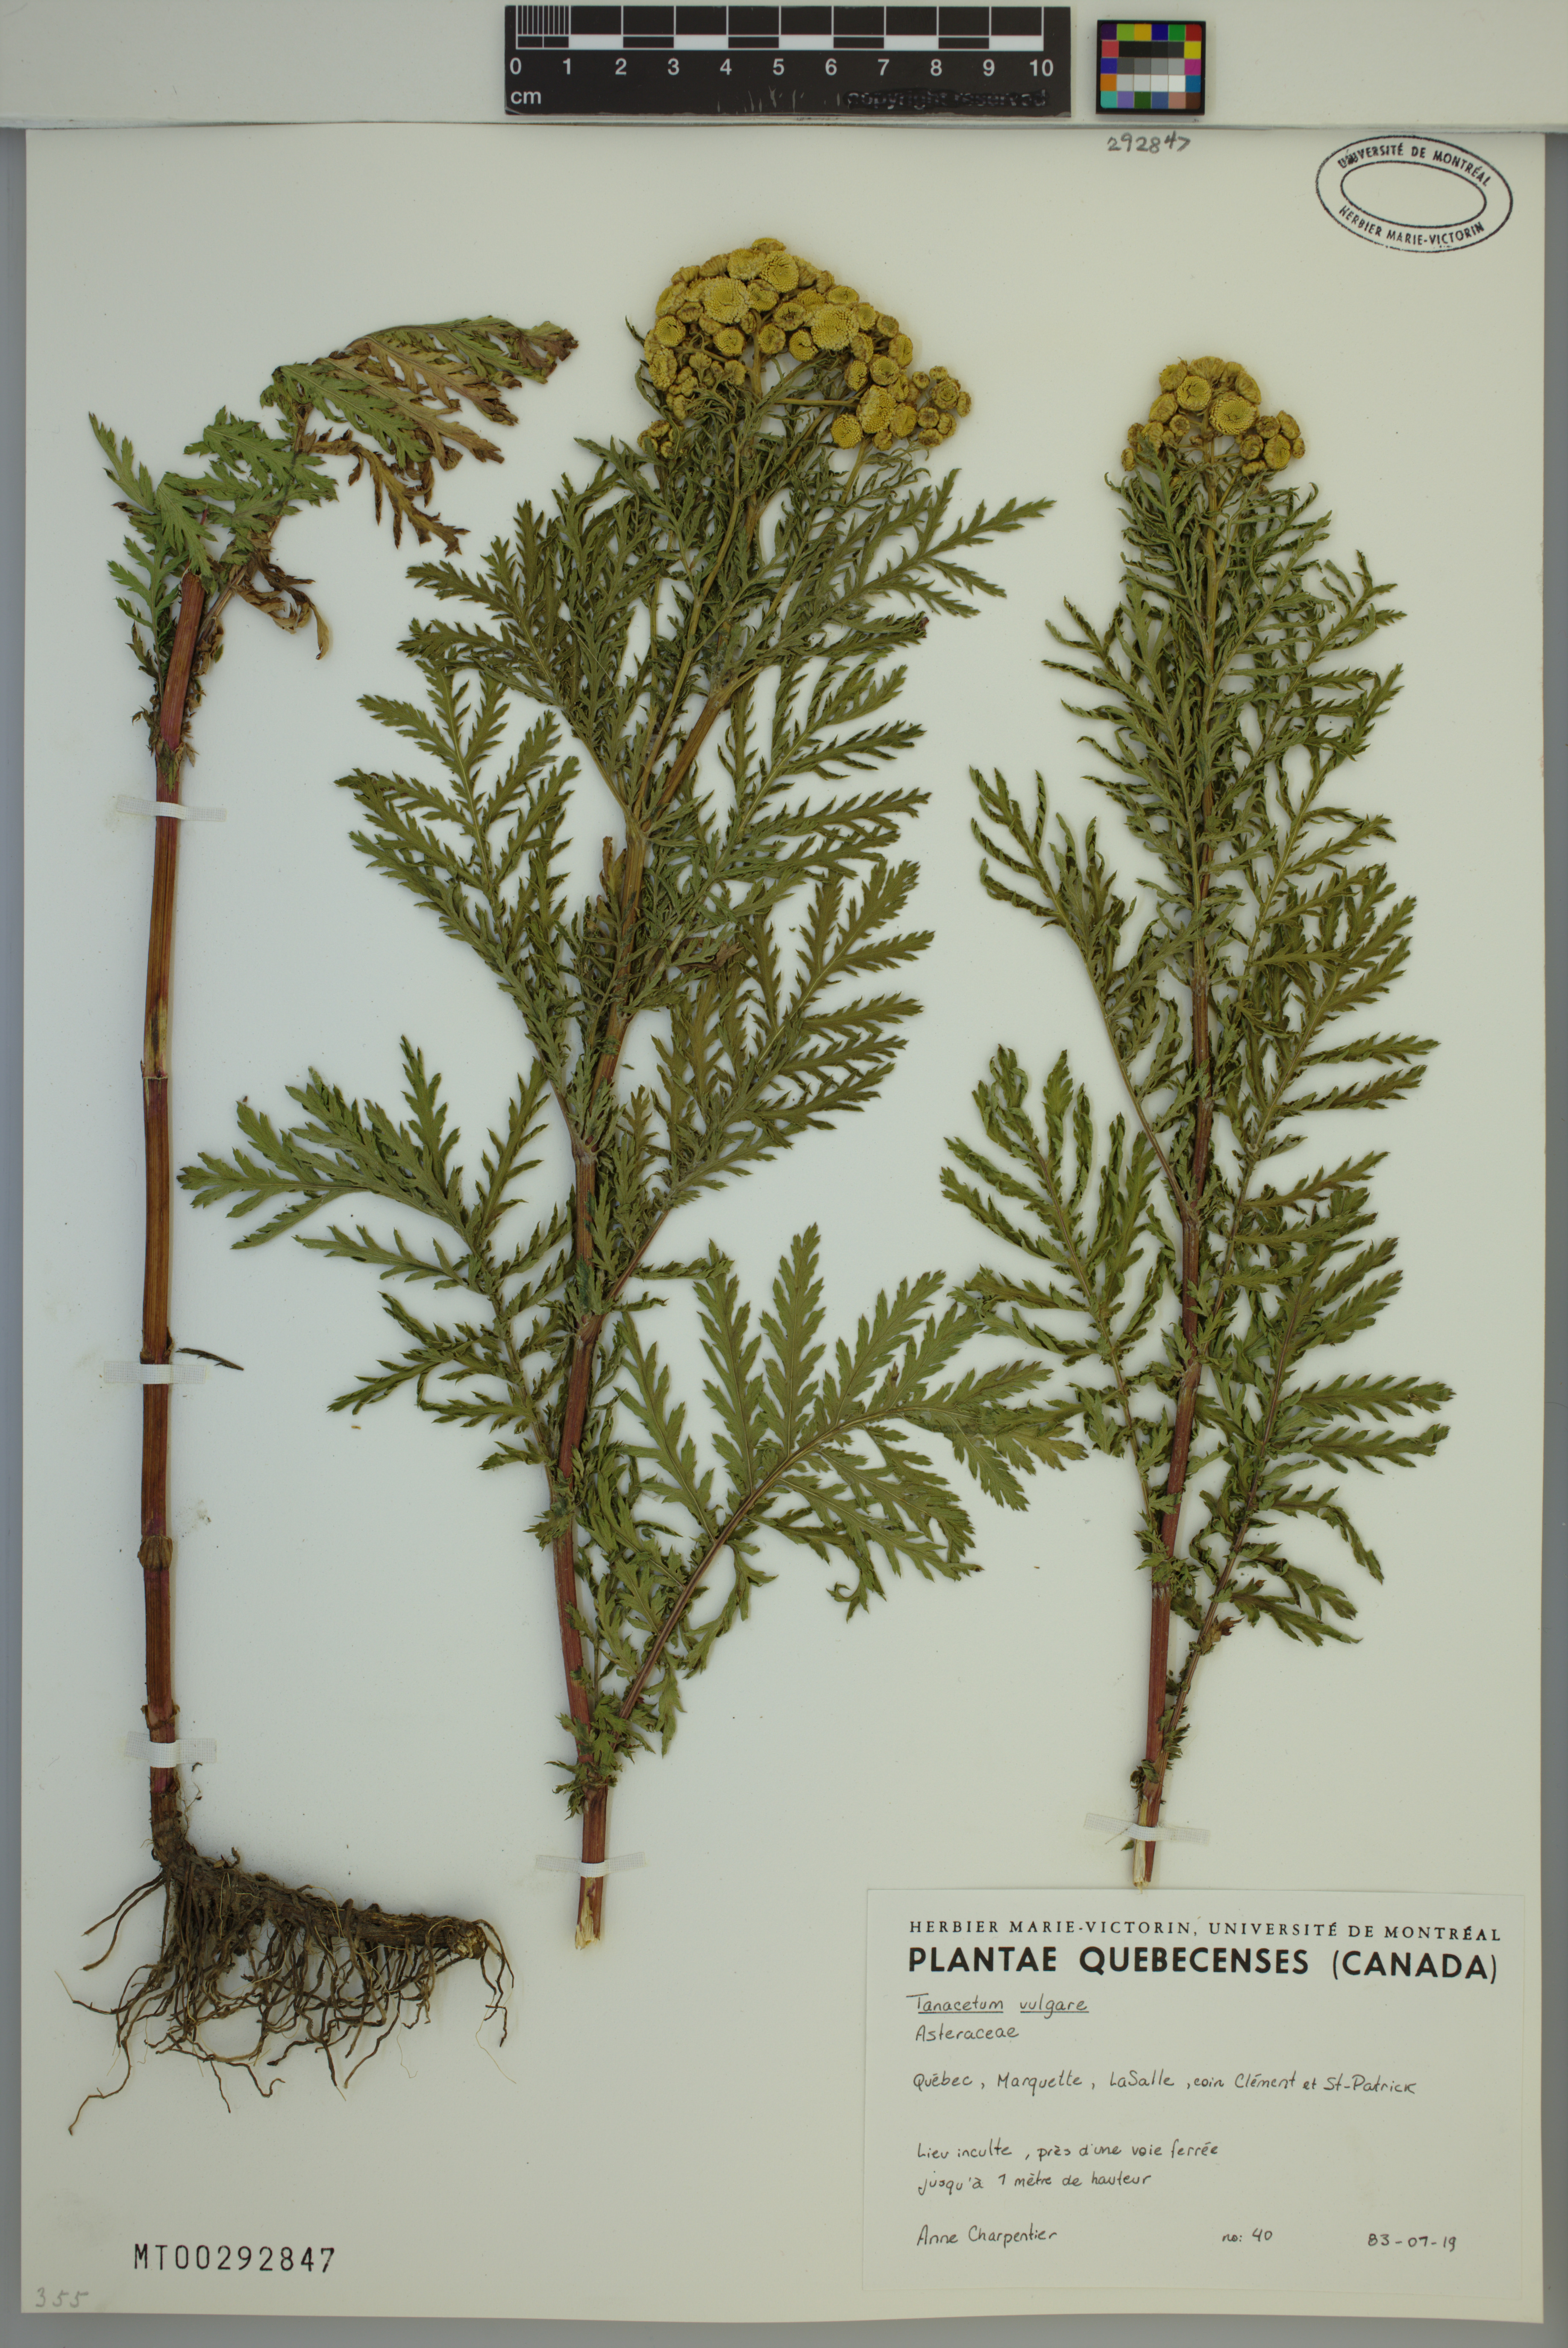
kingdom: Plantae
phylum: Tracheophyta
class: Magnoliopsida
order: Asterales
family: Asteraceae
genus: Tanacetum
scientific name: Tanacetum vulgare
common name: Common tansy
